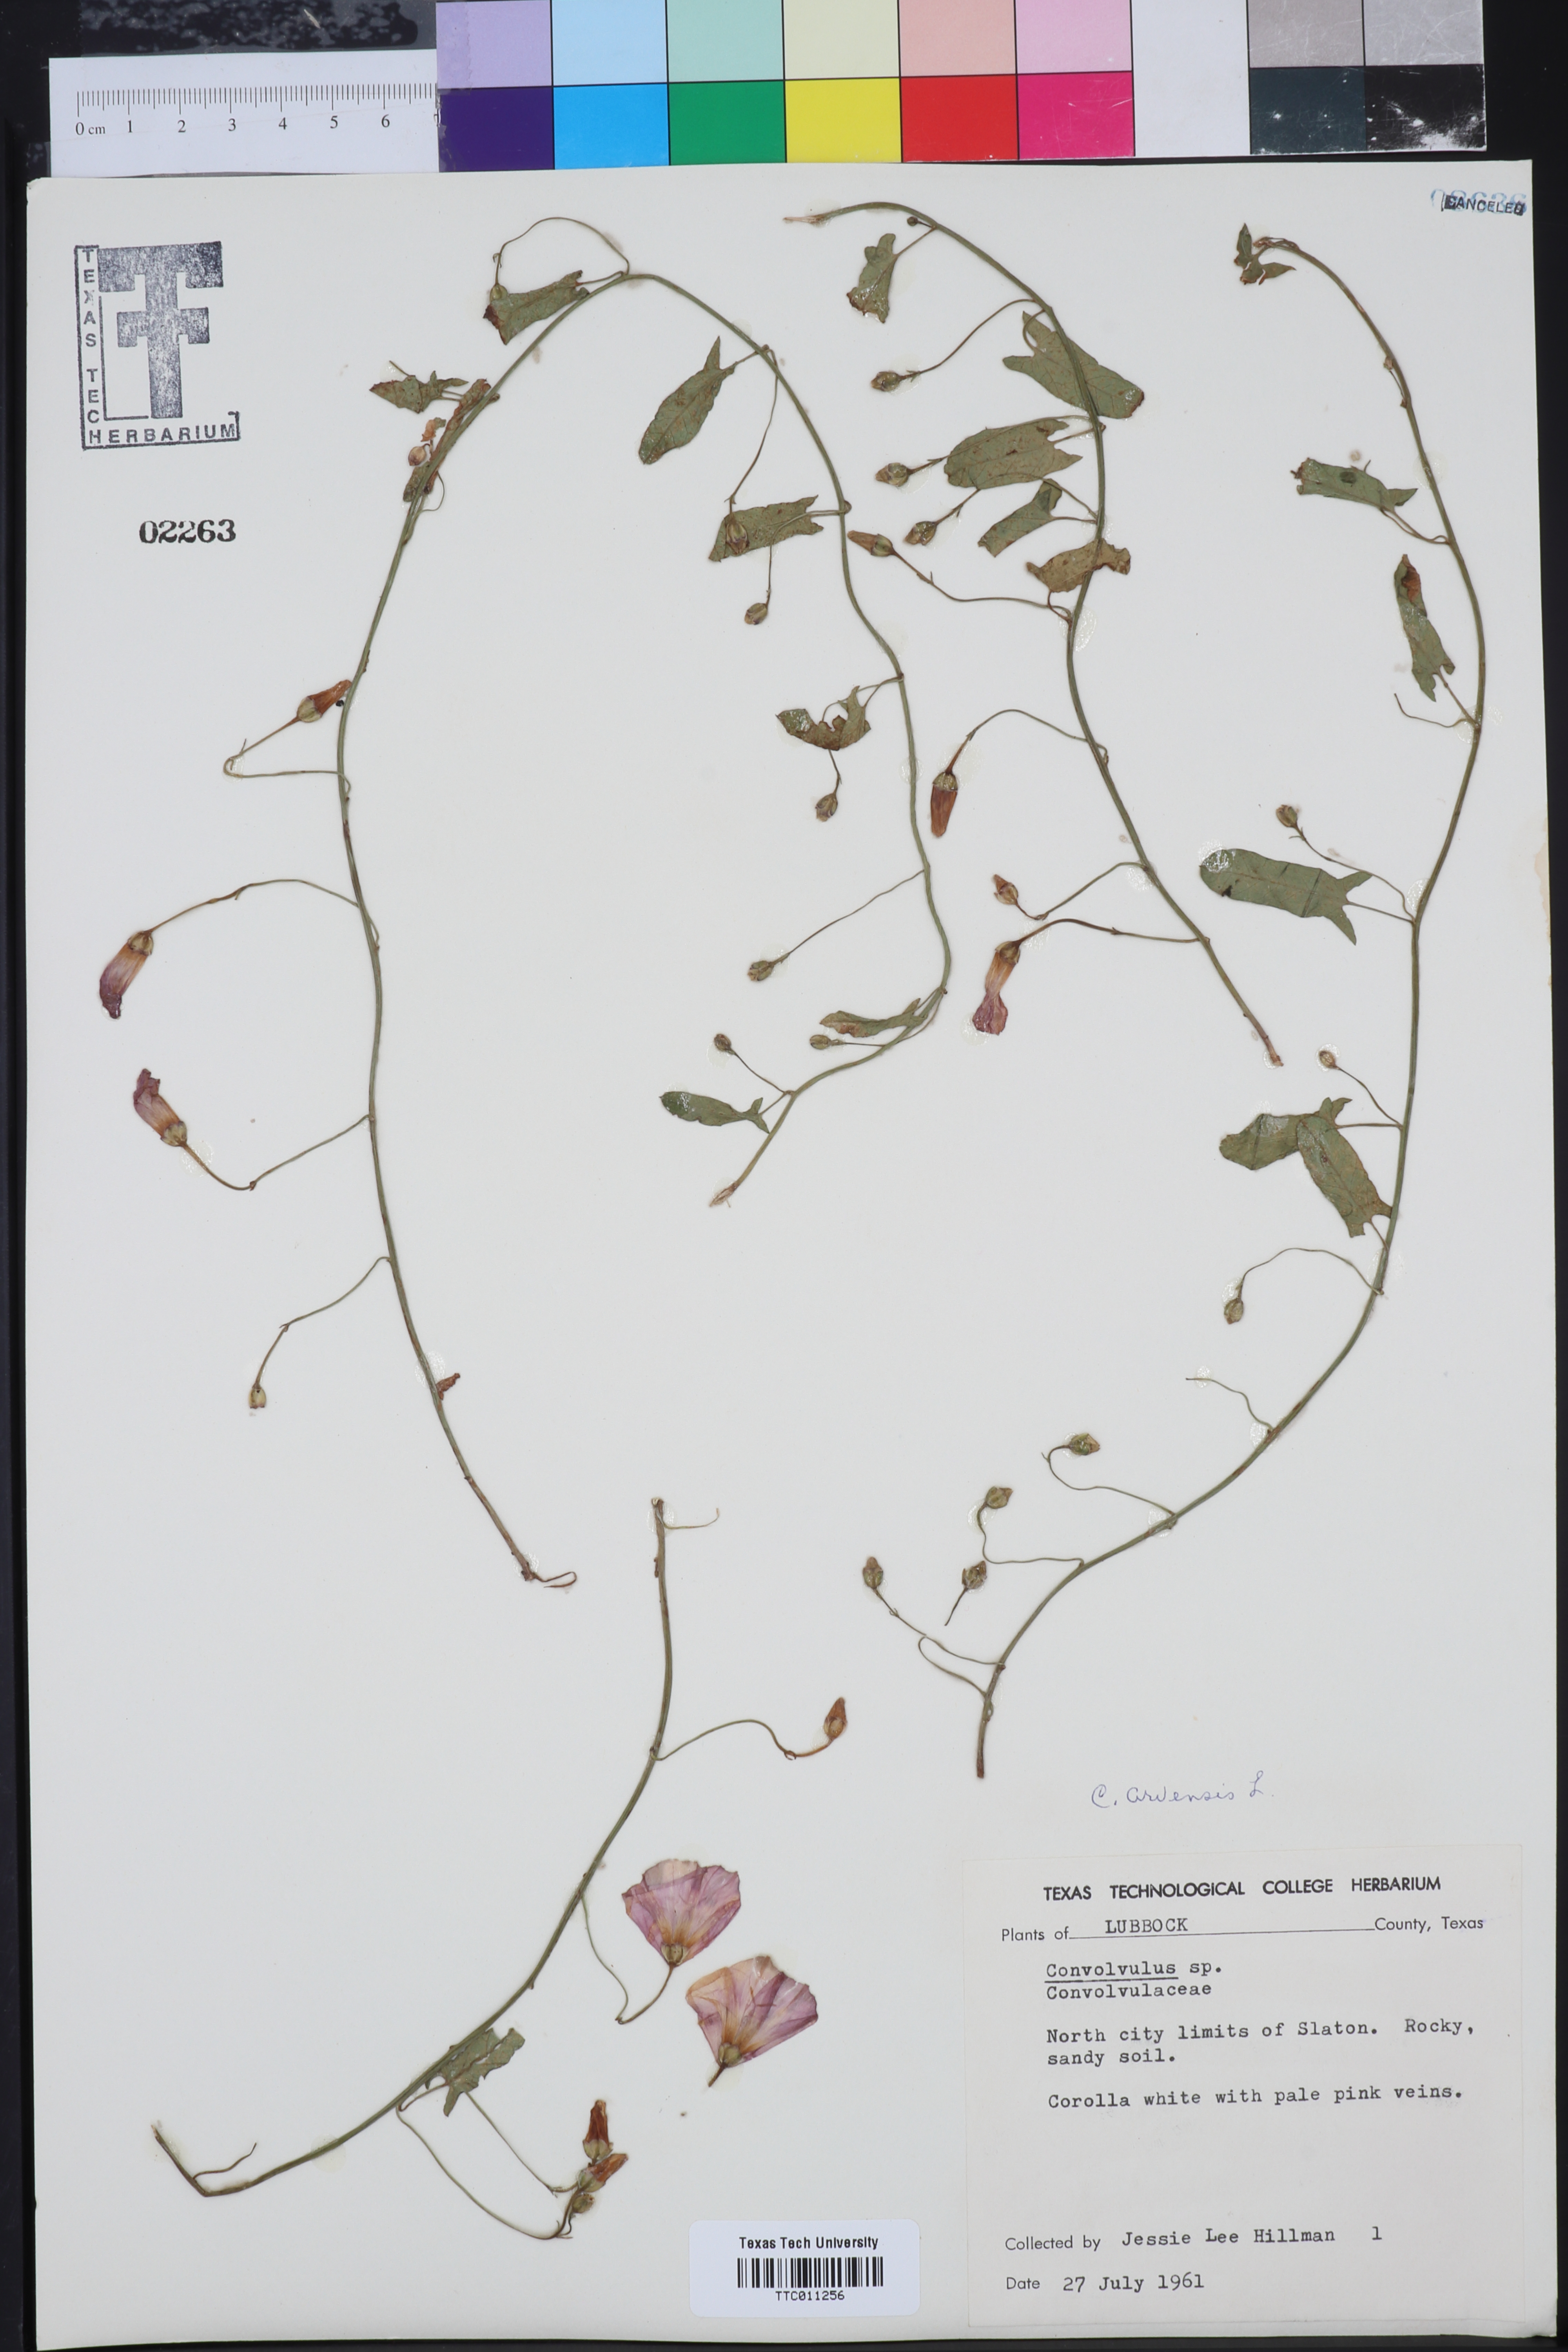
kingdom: Plantae
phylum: Tracheophyta
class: Magnoliopsida
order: Solanales
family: Convolvulaceae
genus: Convolvulus
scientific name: Convolvulus arvensis
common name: Field bindweed
